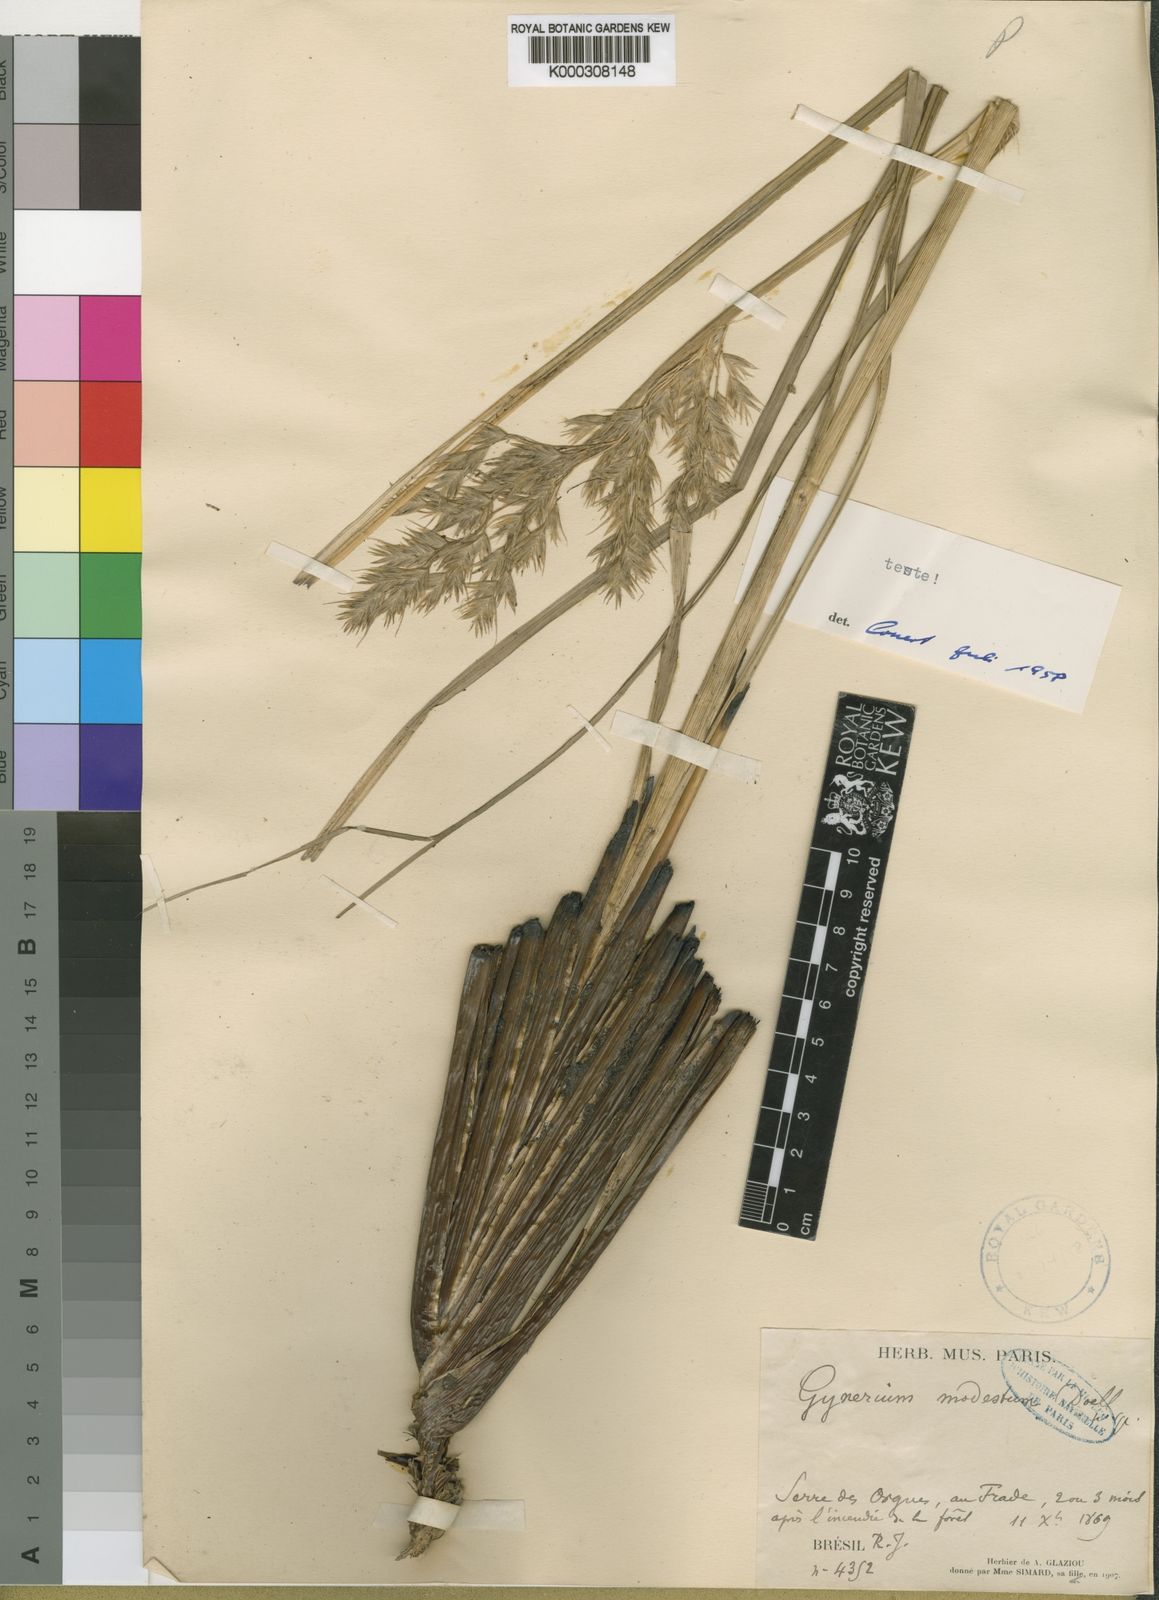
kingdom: Plantae
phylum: Tracheophyta
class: Liliopsida
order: Poales
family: Poaceae
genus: Cortaderia
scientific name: Cortaderia modesta
